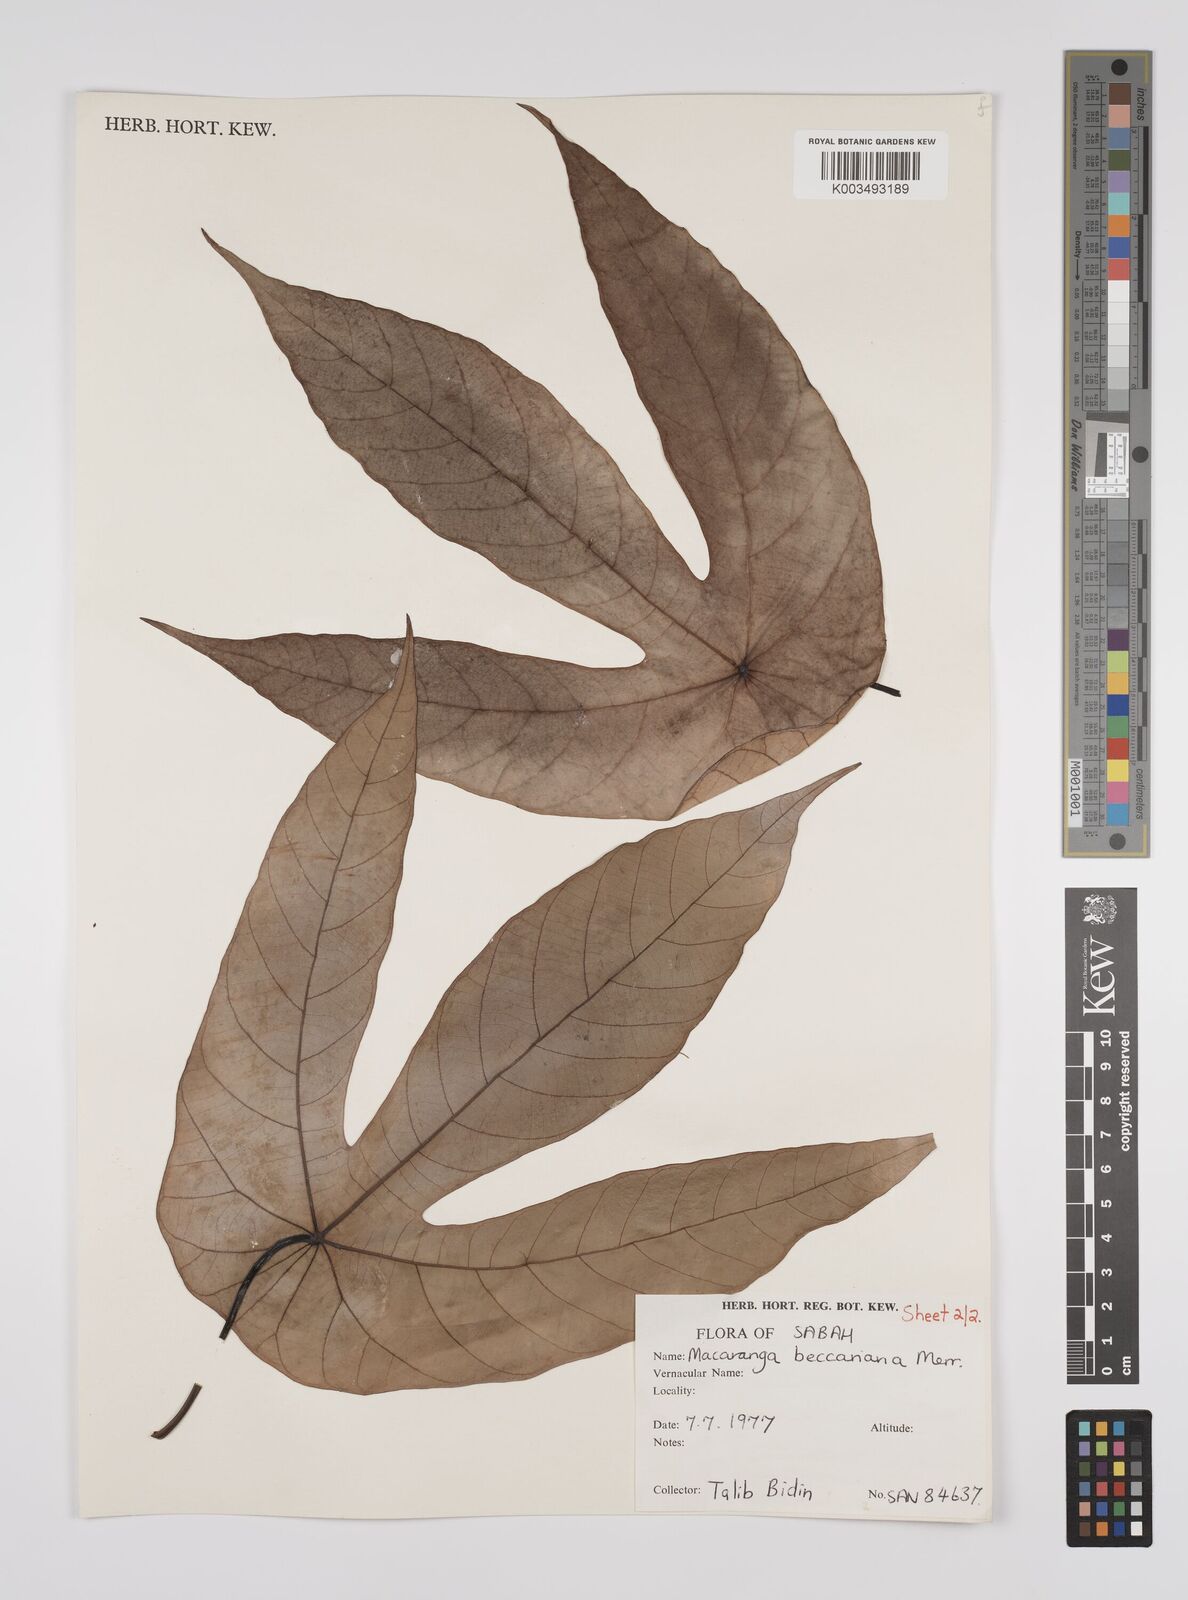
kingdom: Plantae
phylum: Tracheophyta
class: Magnoliopsida
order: Malpighiales
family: Euphorbiaceae
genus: Macaranga
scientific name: Macaranga beccariana
